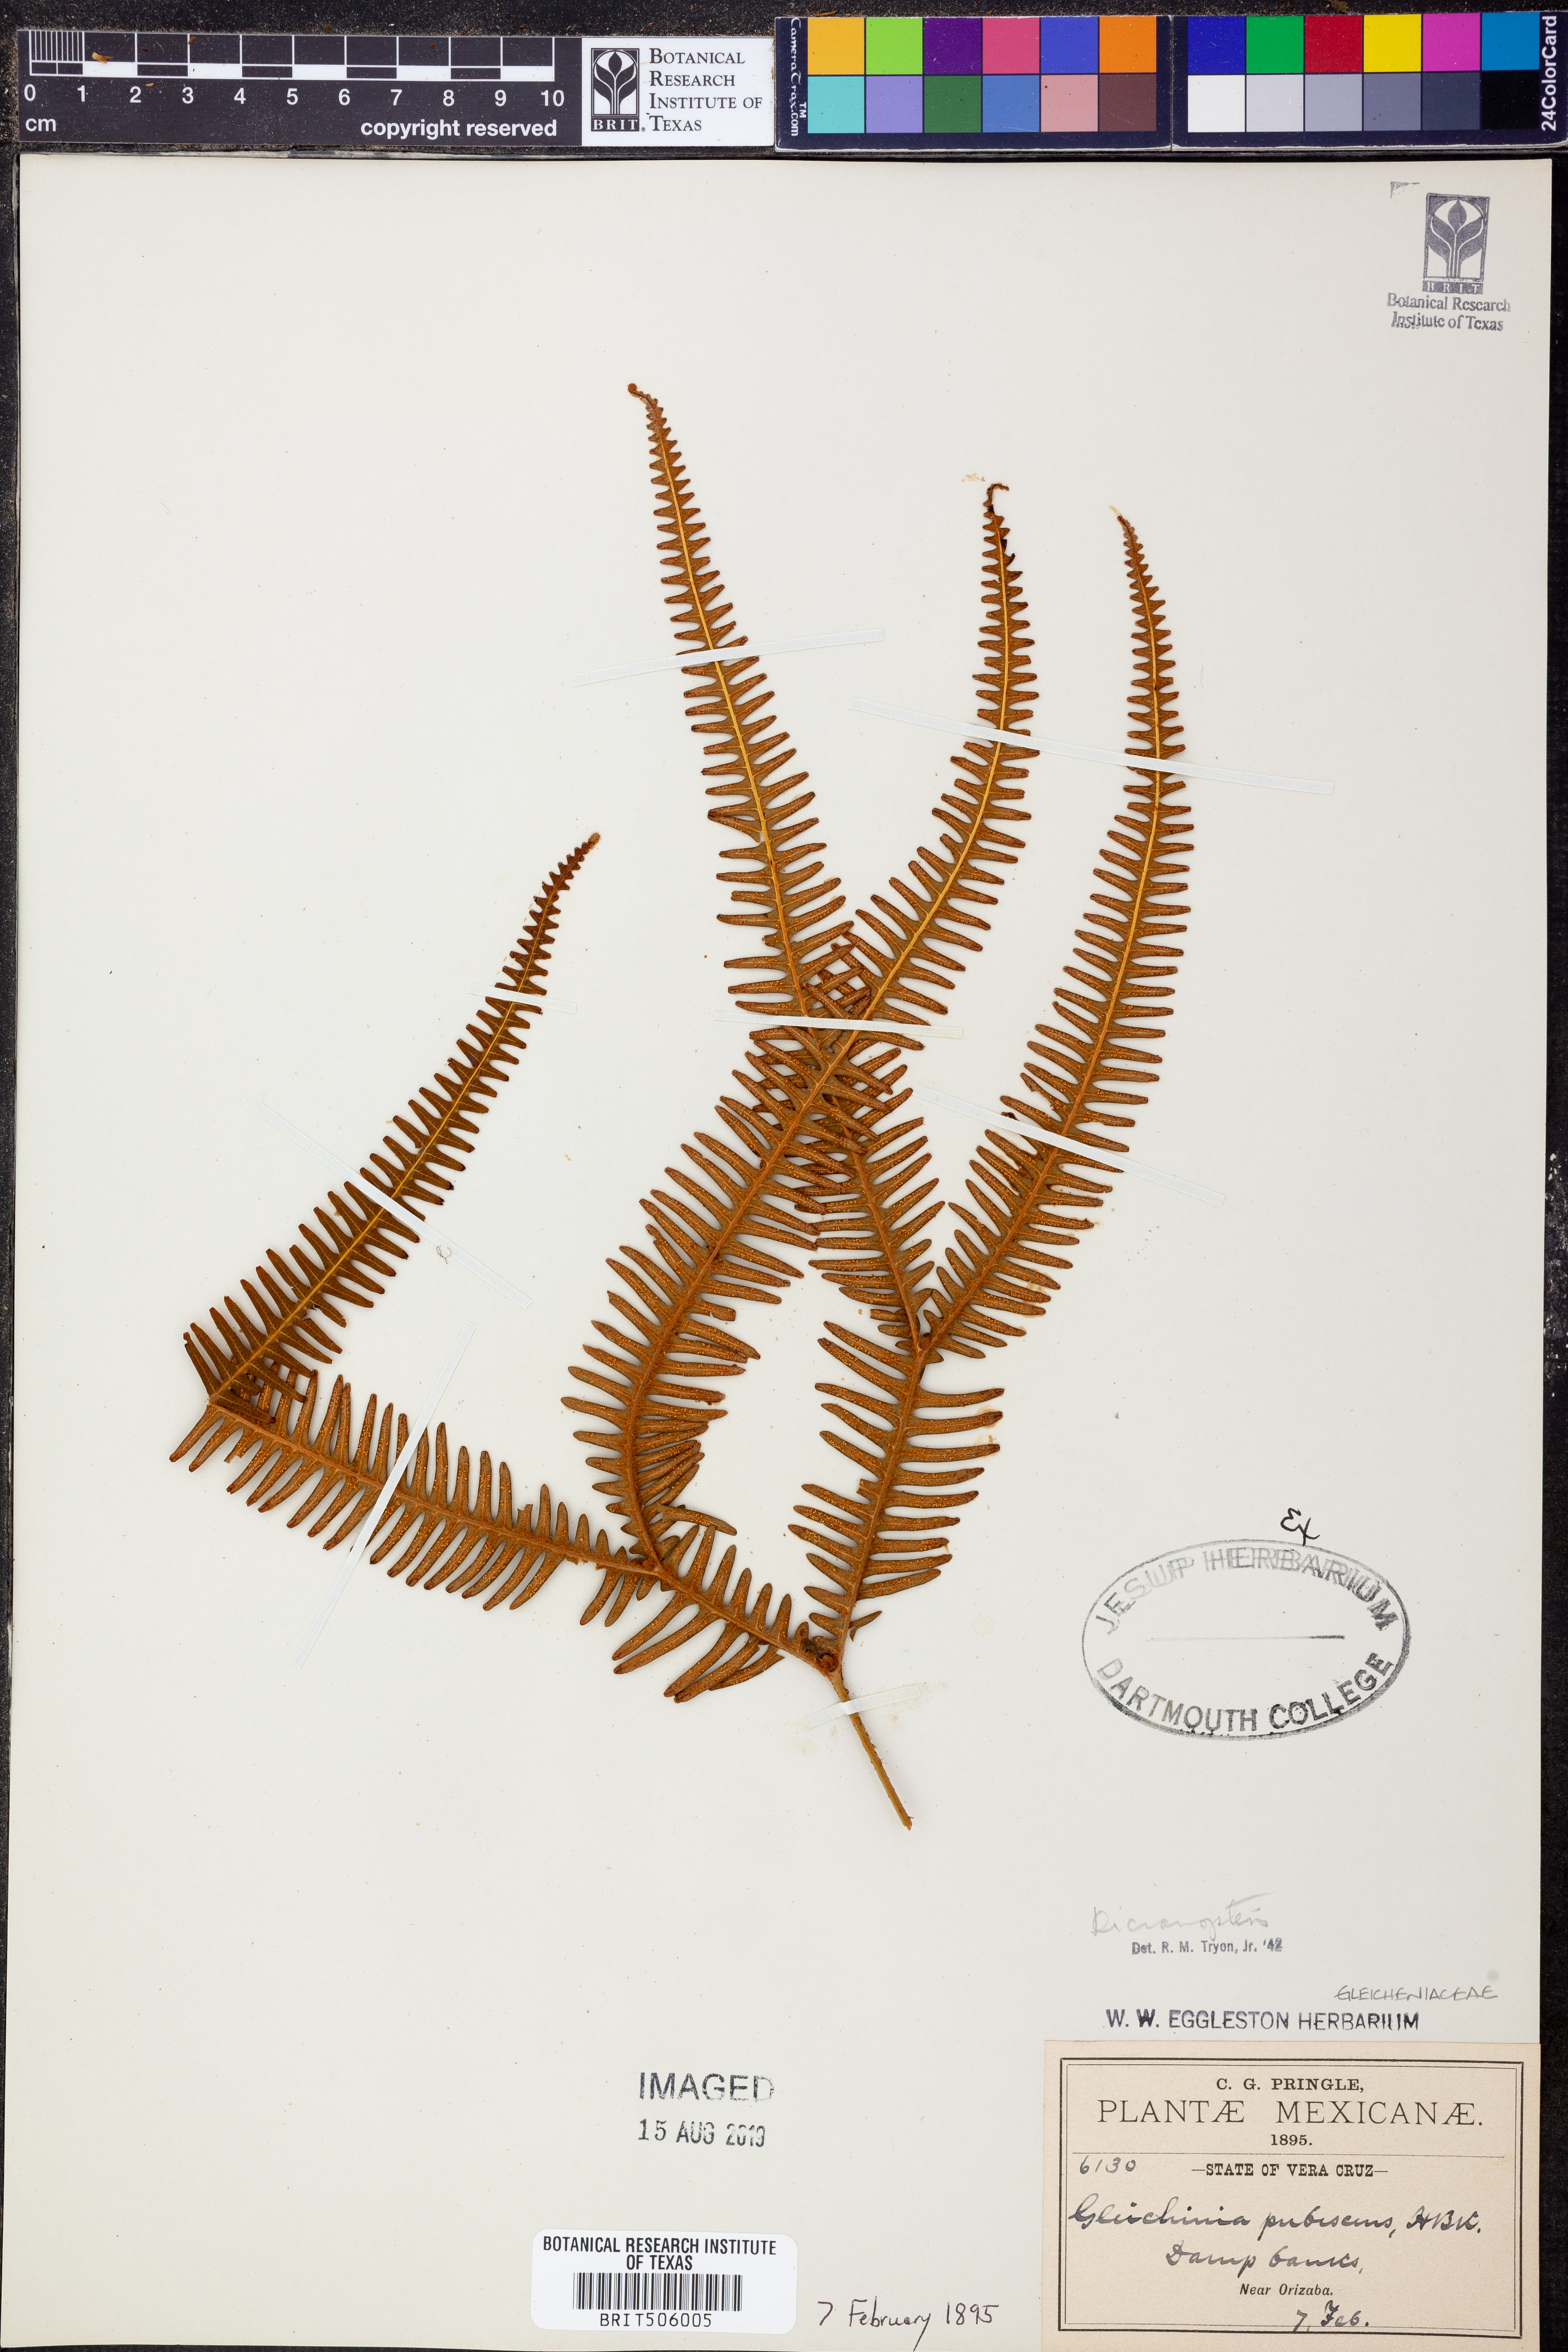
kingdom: Plantae
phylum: Tracheophyta
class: Polypodiopsida
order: Gleicheniales
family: Gleicheniaceae
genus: Sticherus
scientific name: Sticherus bifidus
